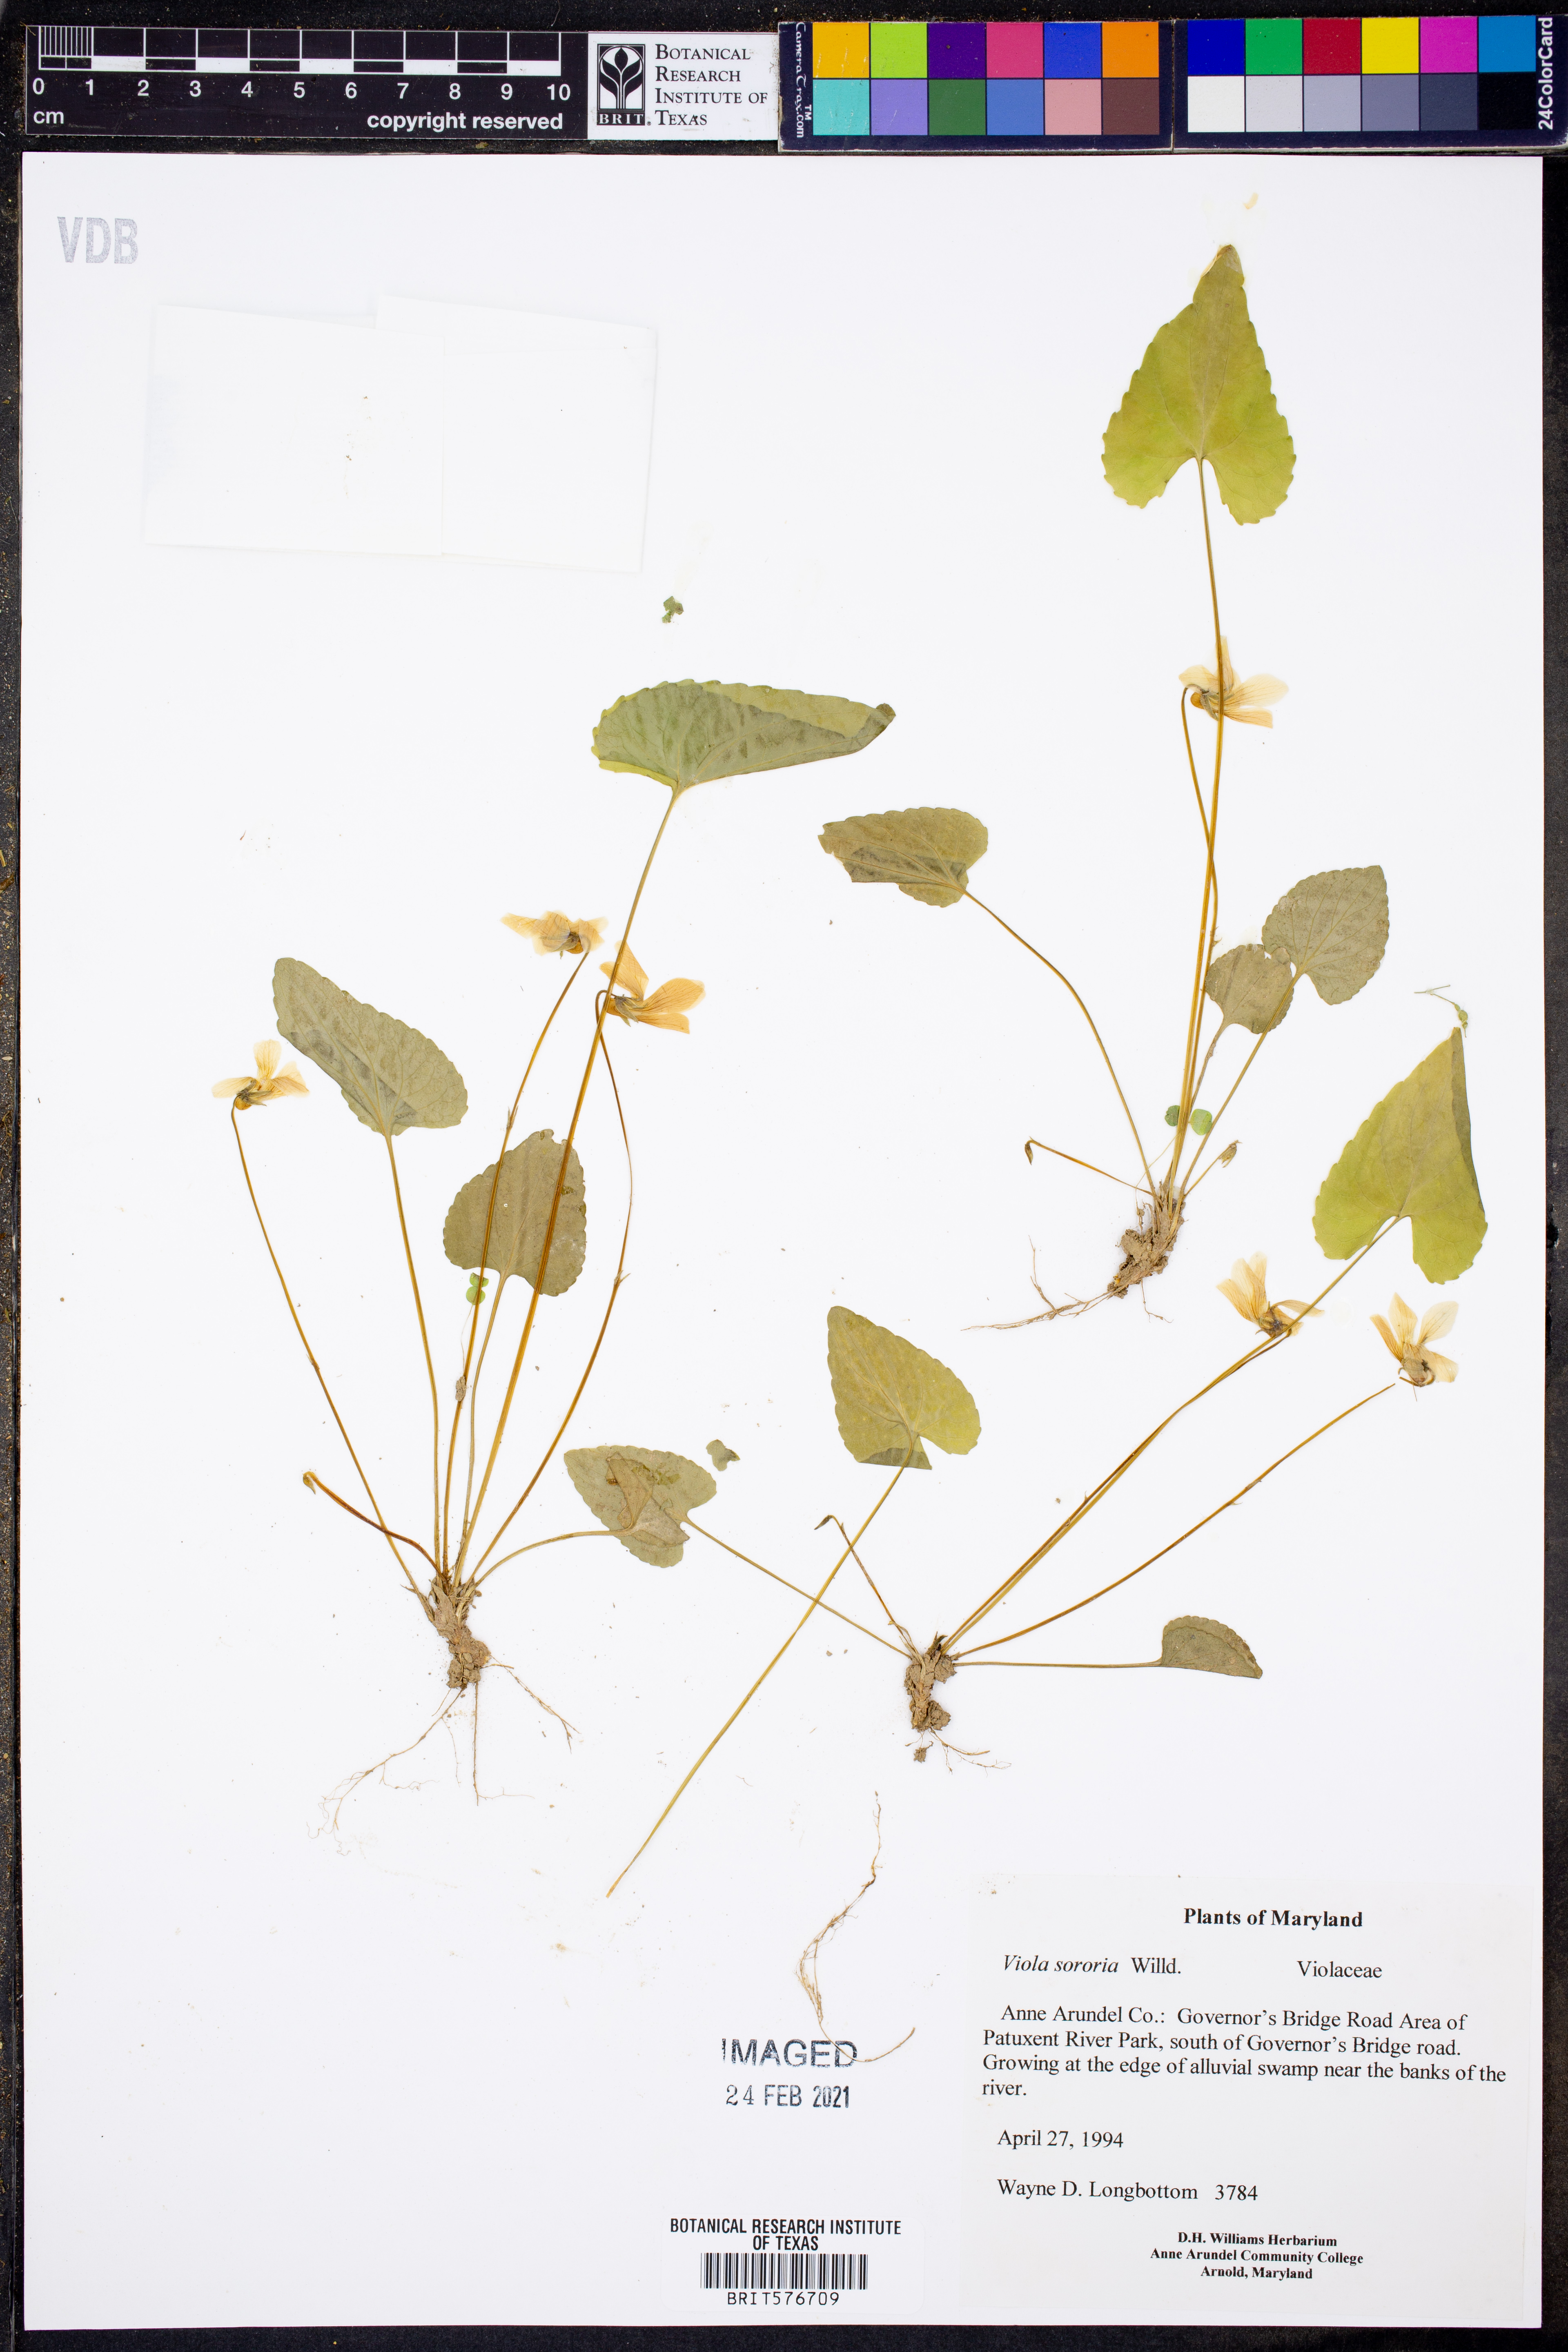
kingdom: Plantae
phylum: Tracheophyta
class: Magnoliopsida
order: Malpighiales
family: Violaceae
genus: Viola
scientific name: Viola sororia
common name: Dooryard violet
